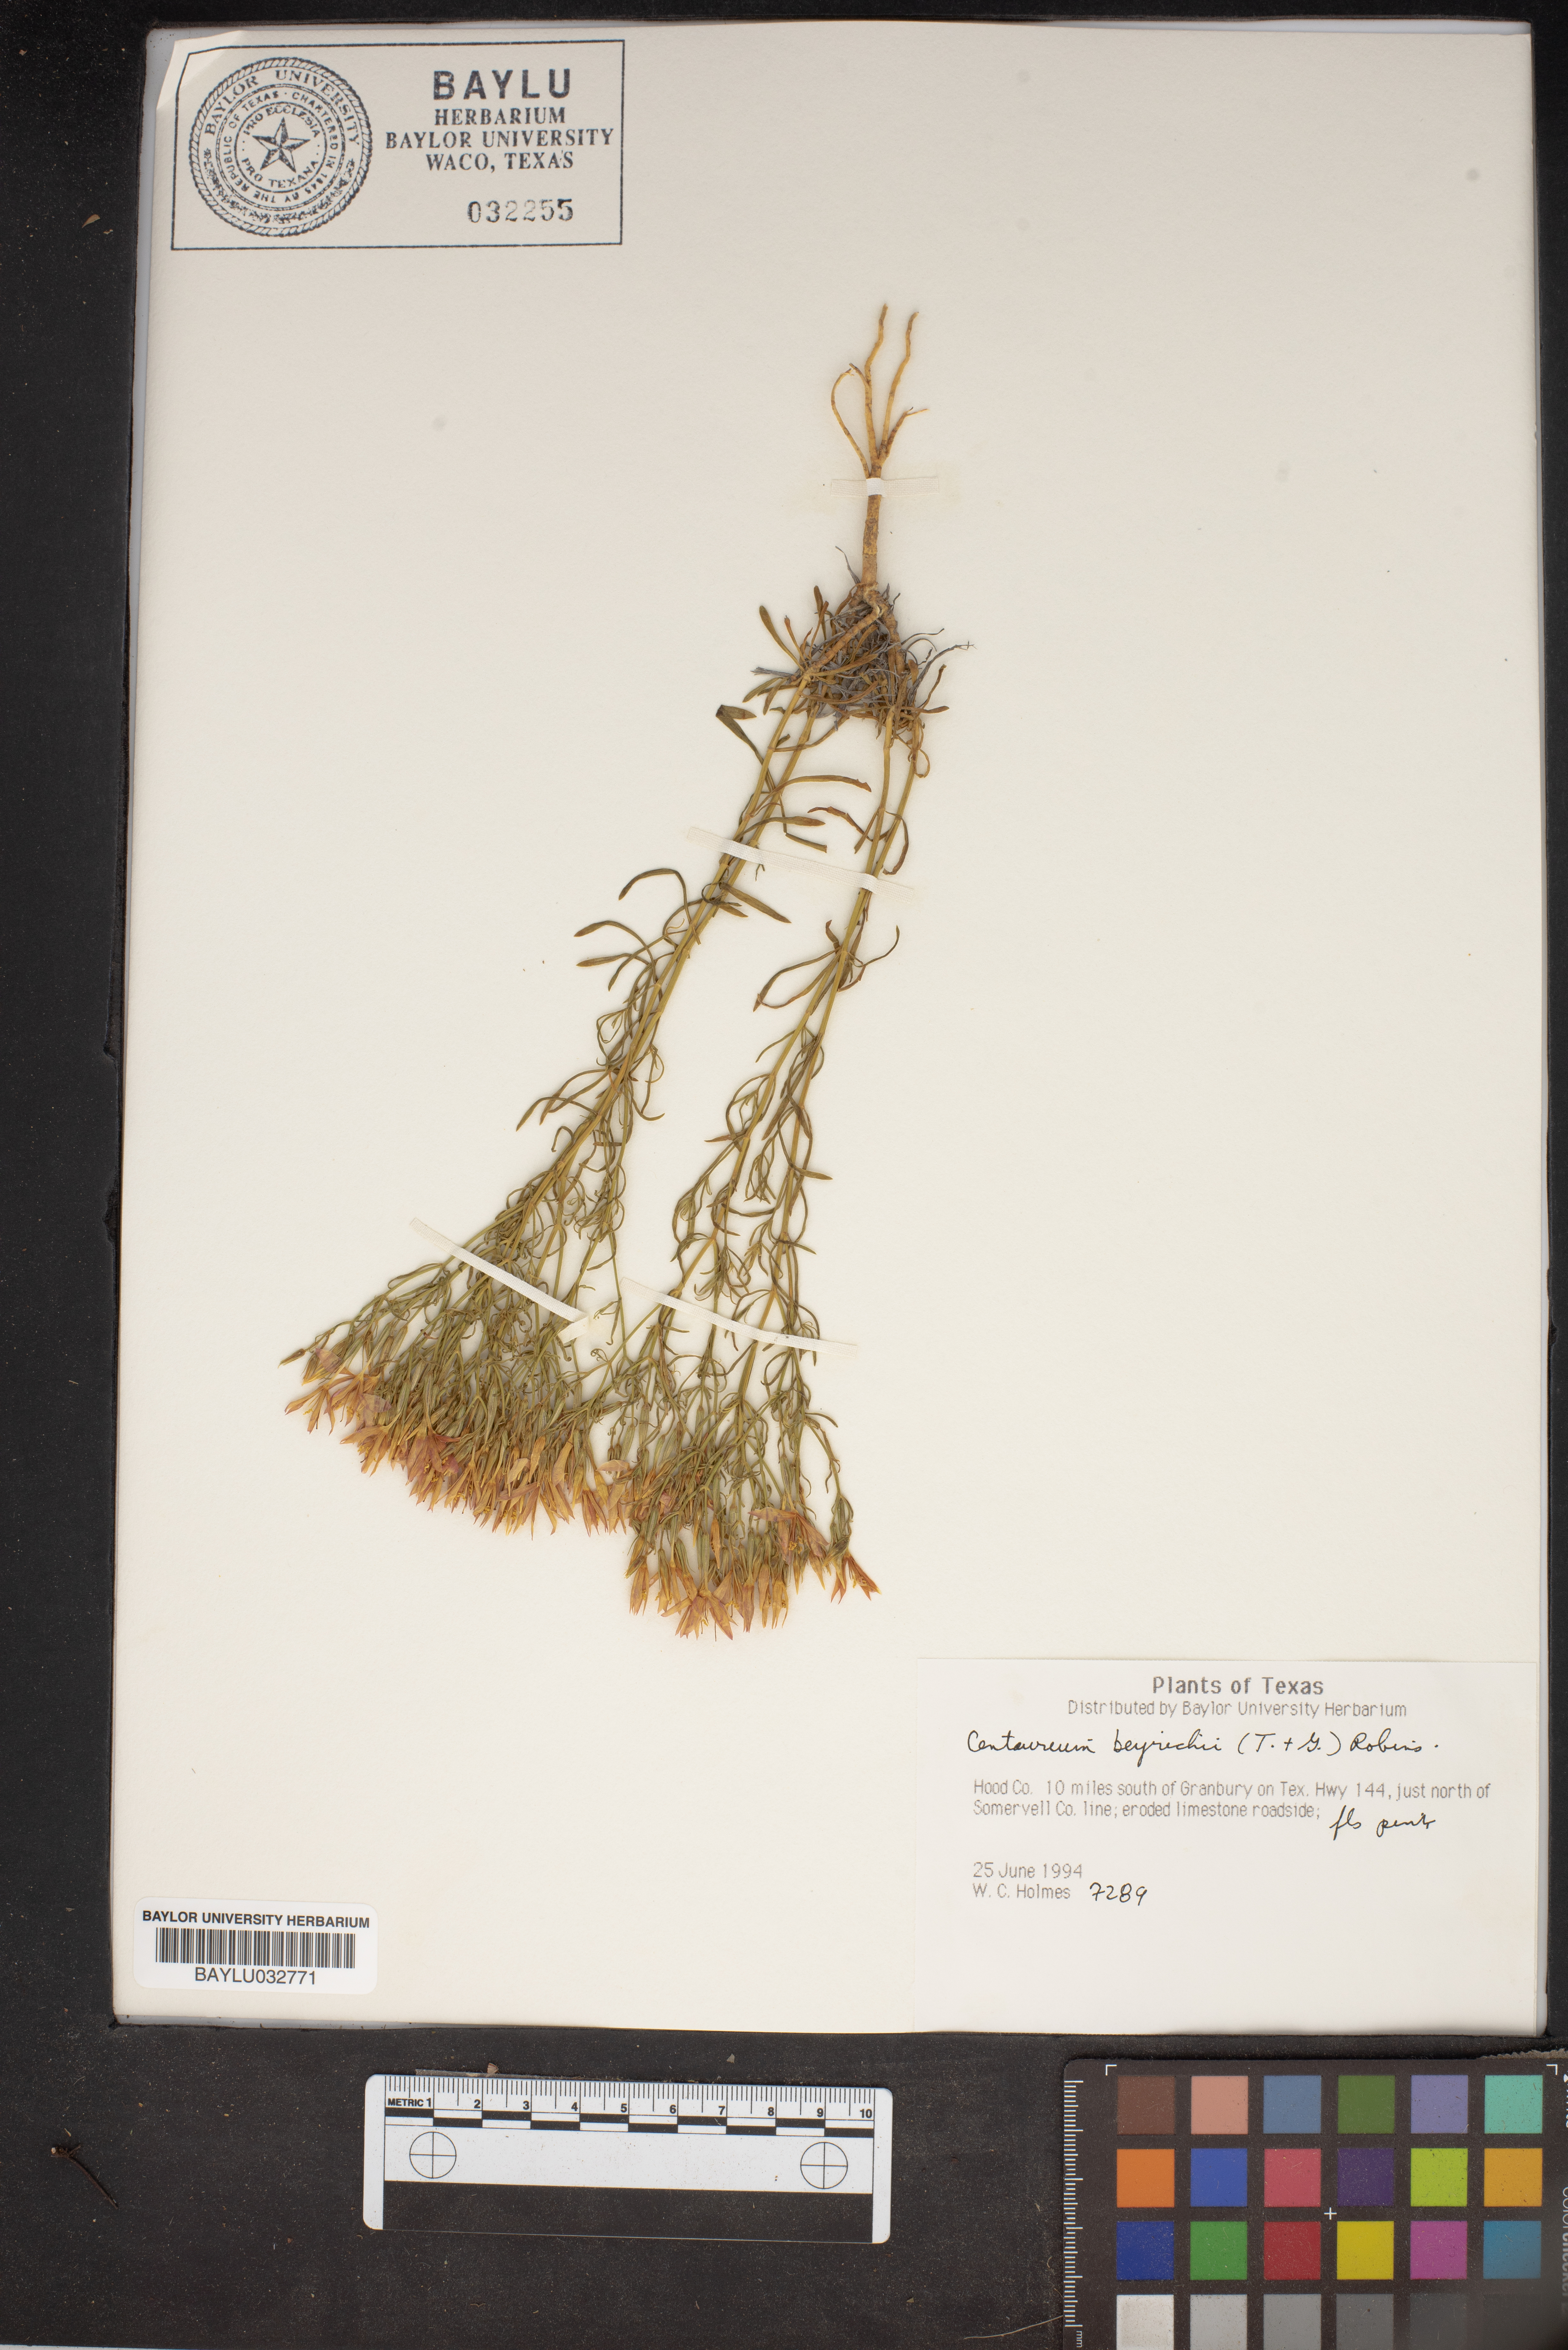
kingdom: Plantae
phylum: Tracheophyta
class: Magnoliopsida
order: Gentianales
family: Gentianaceae
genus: Zeltnera
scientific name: Zeltnera beyrichii
